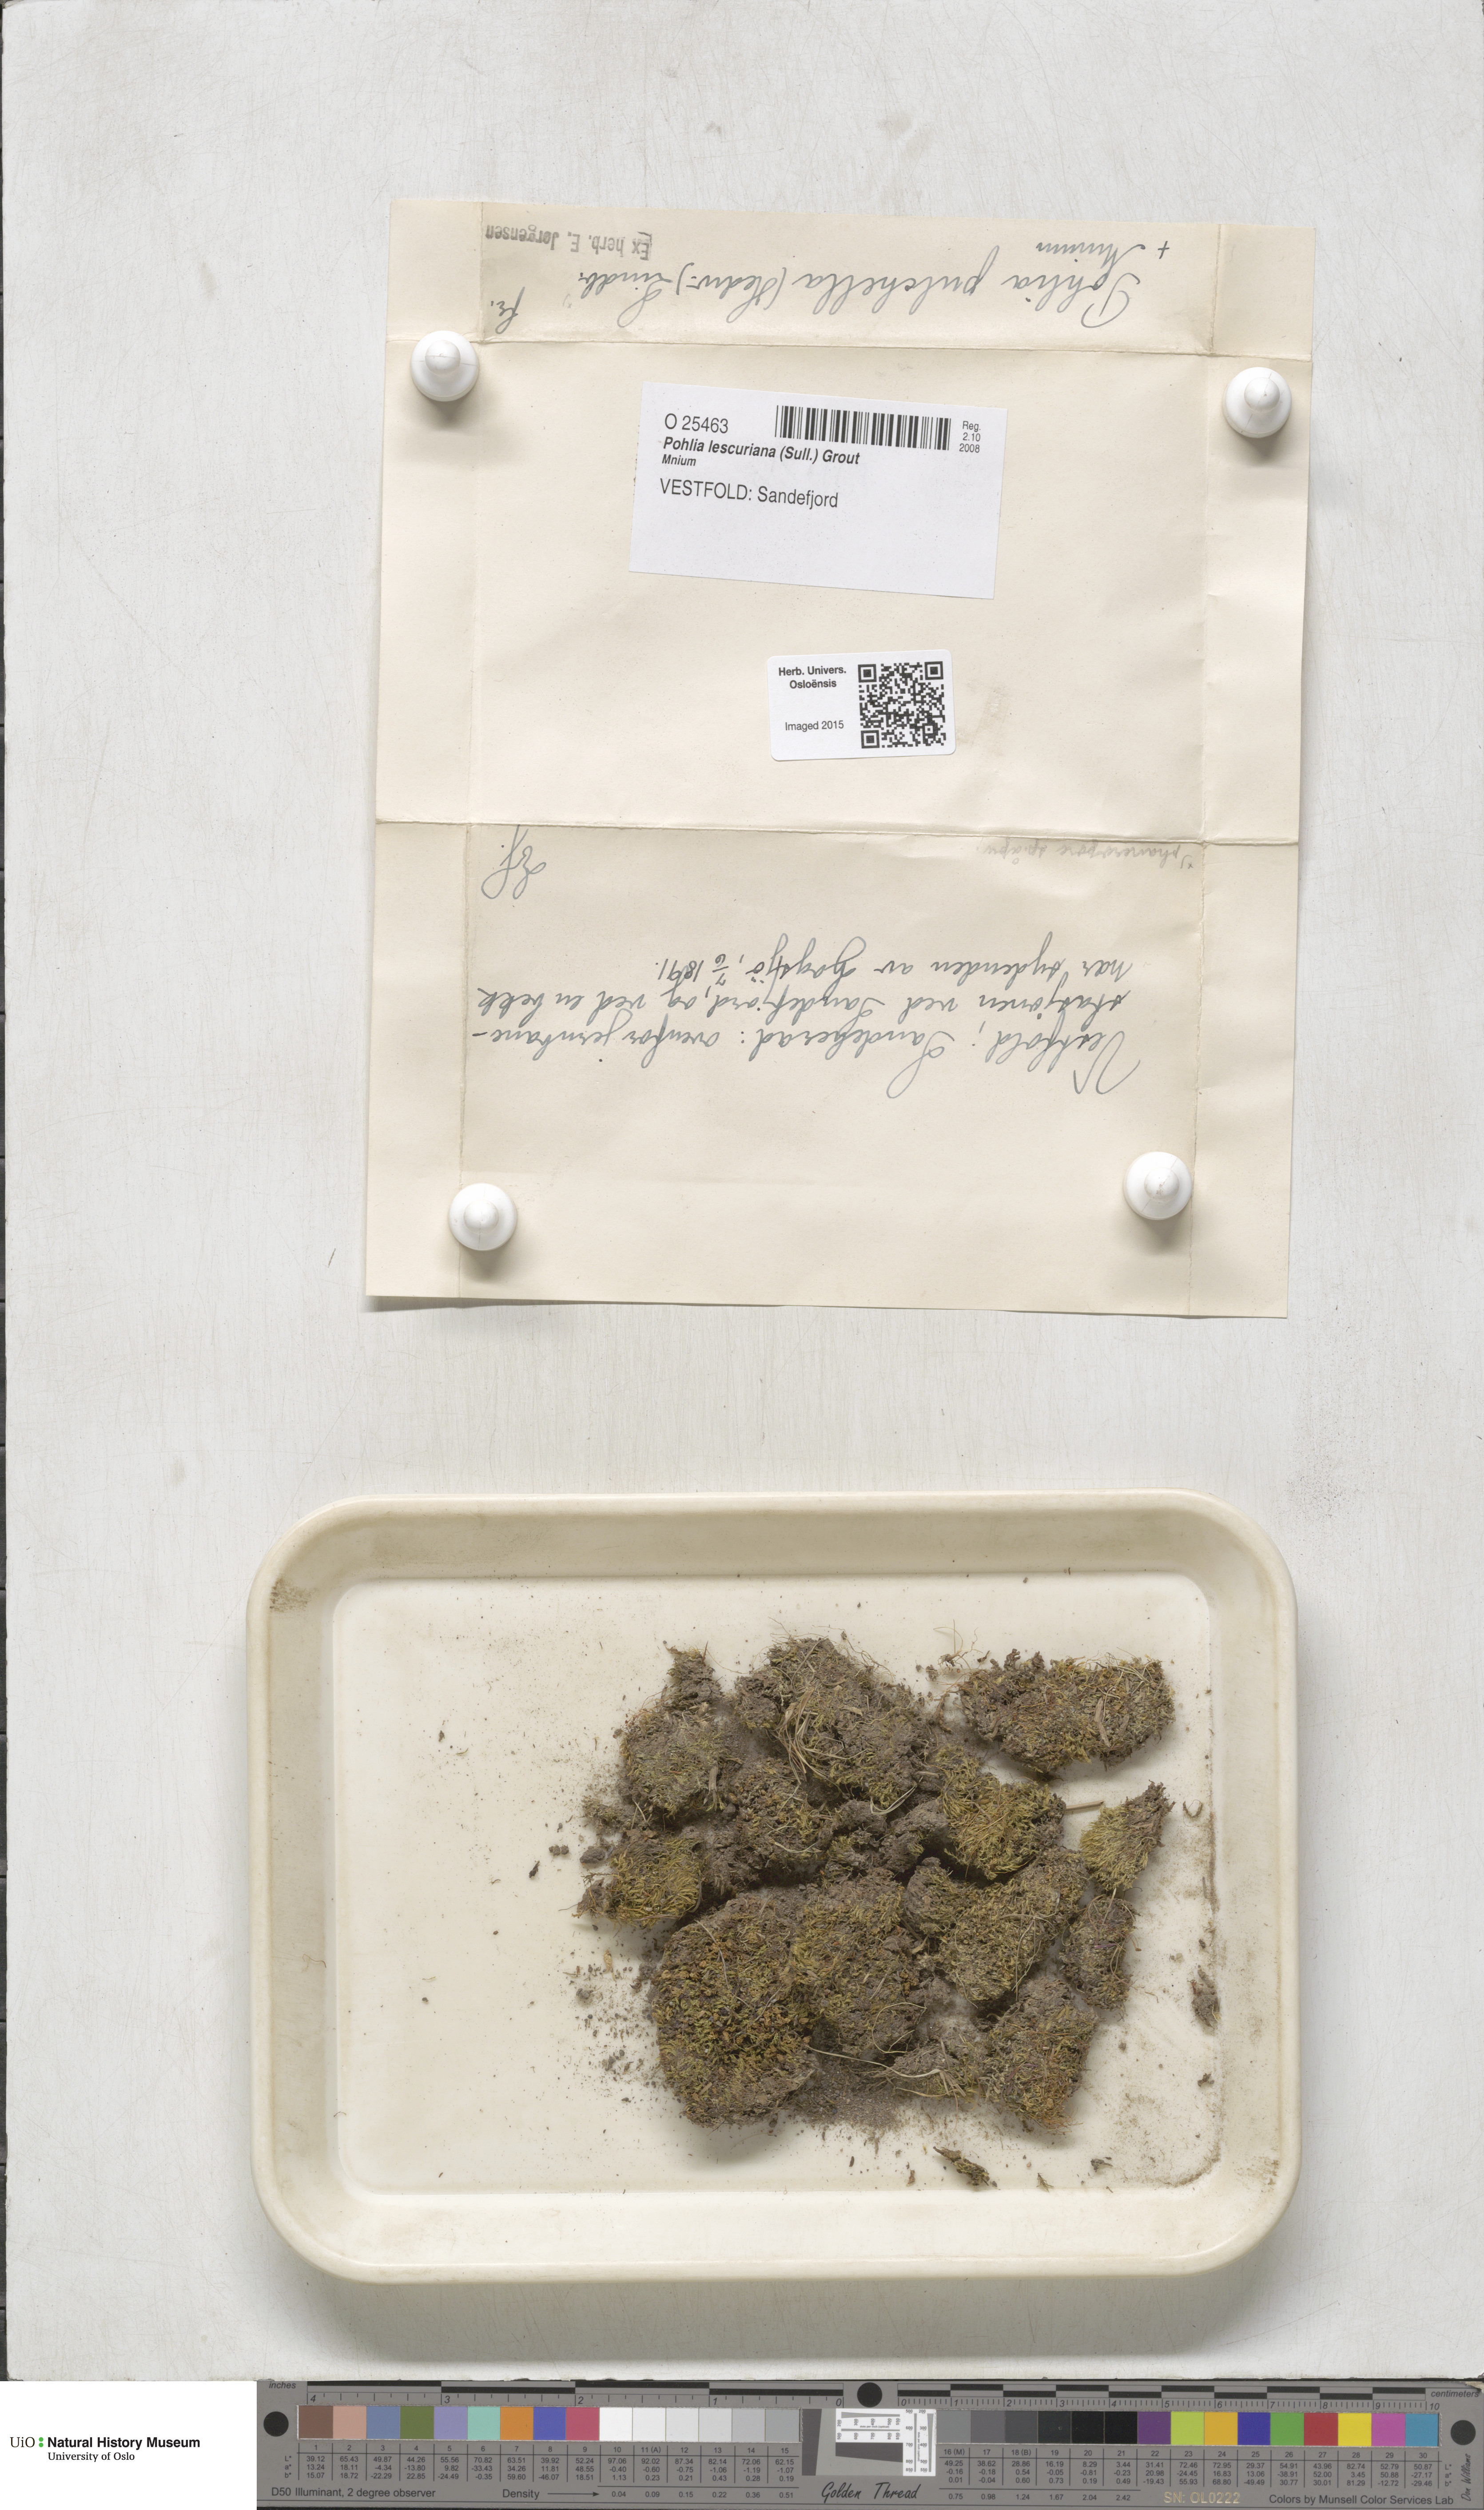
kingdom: Plantae
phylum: Bryophyta
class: Bryopsida
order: Bryales
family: Mniaceae
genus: Pohlia
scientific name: Pohlia
